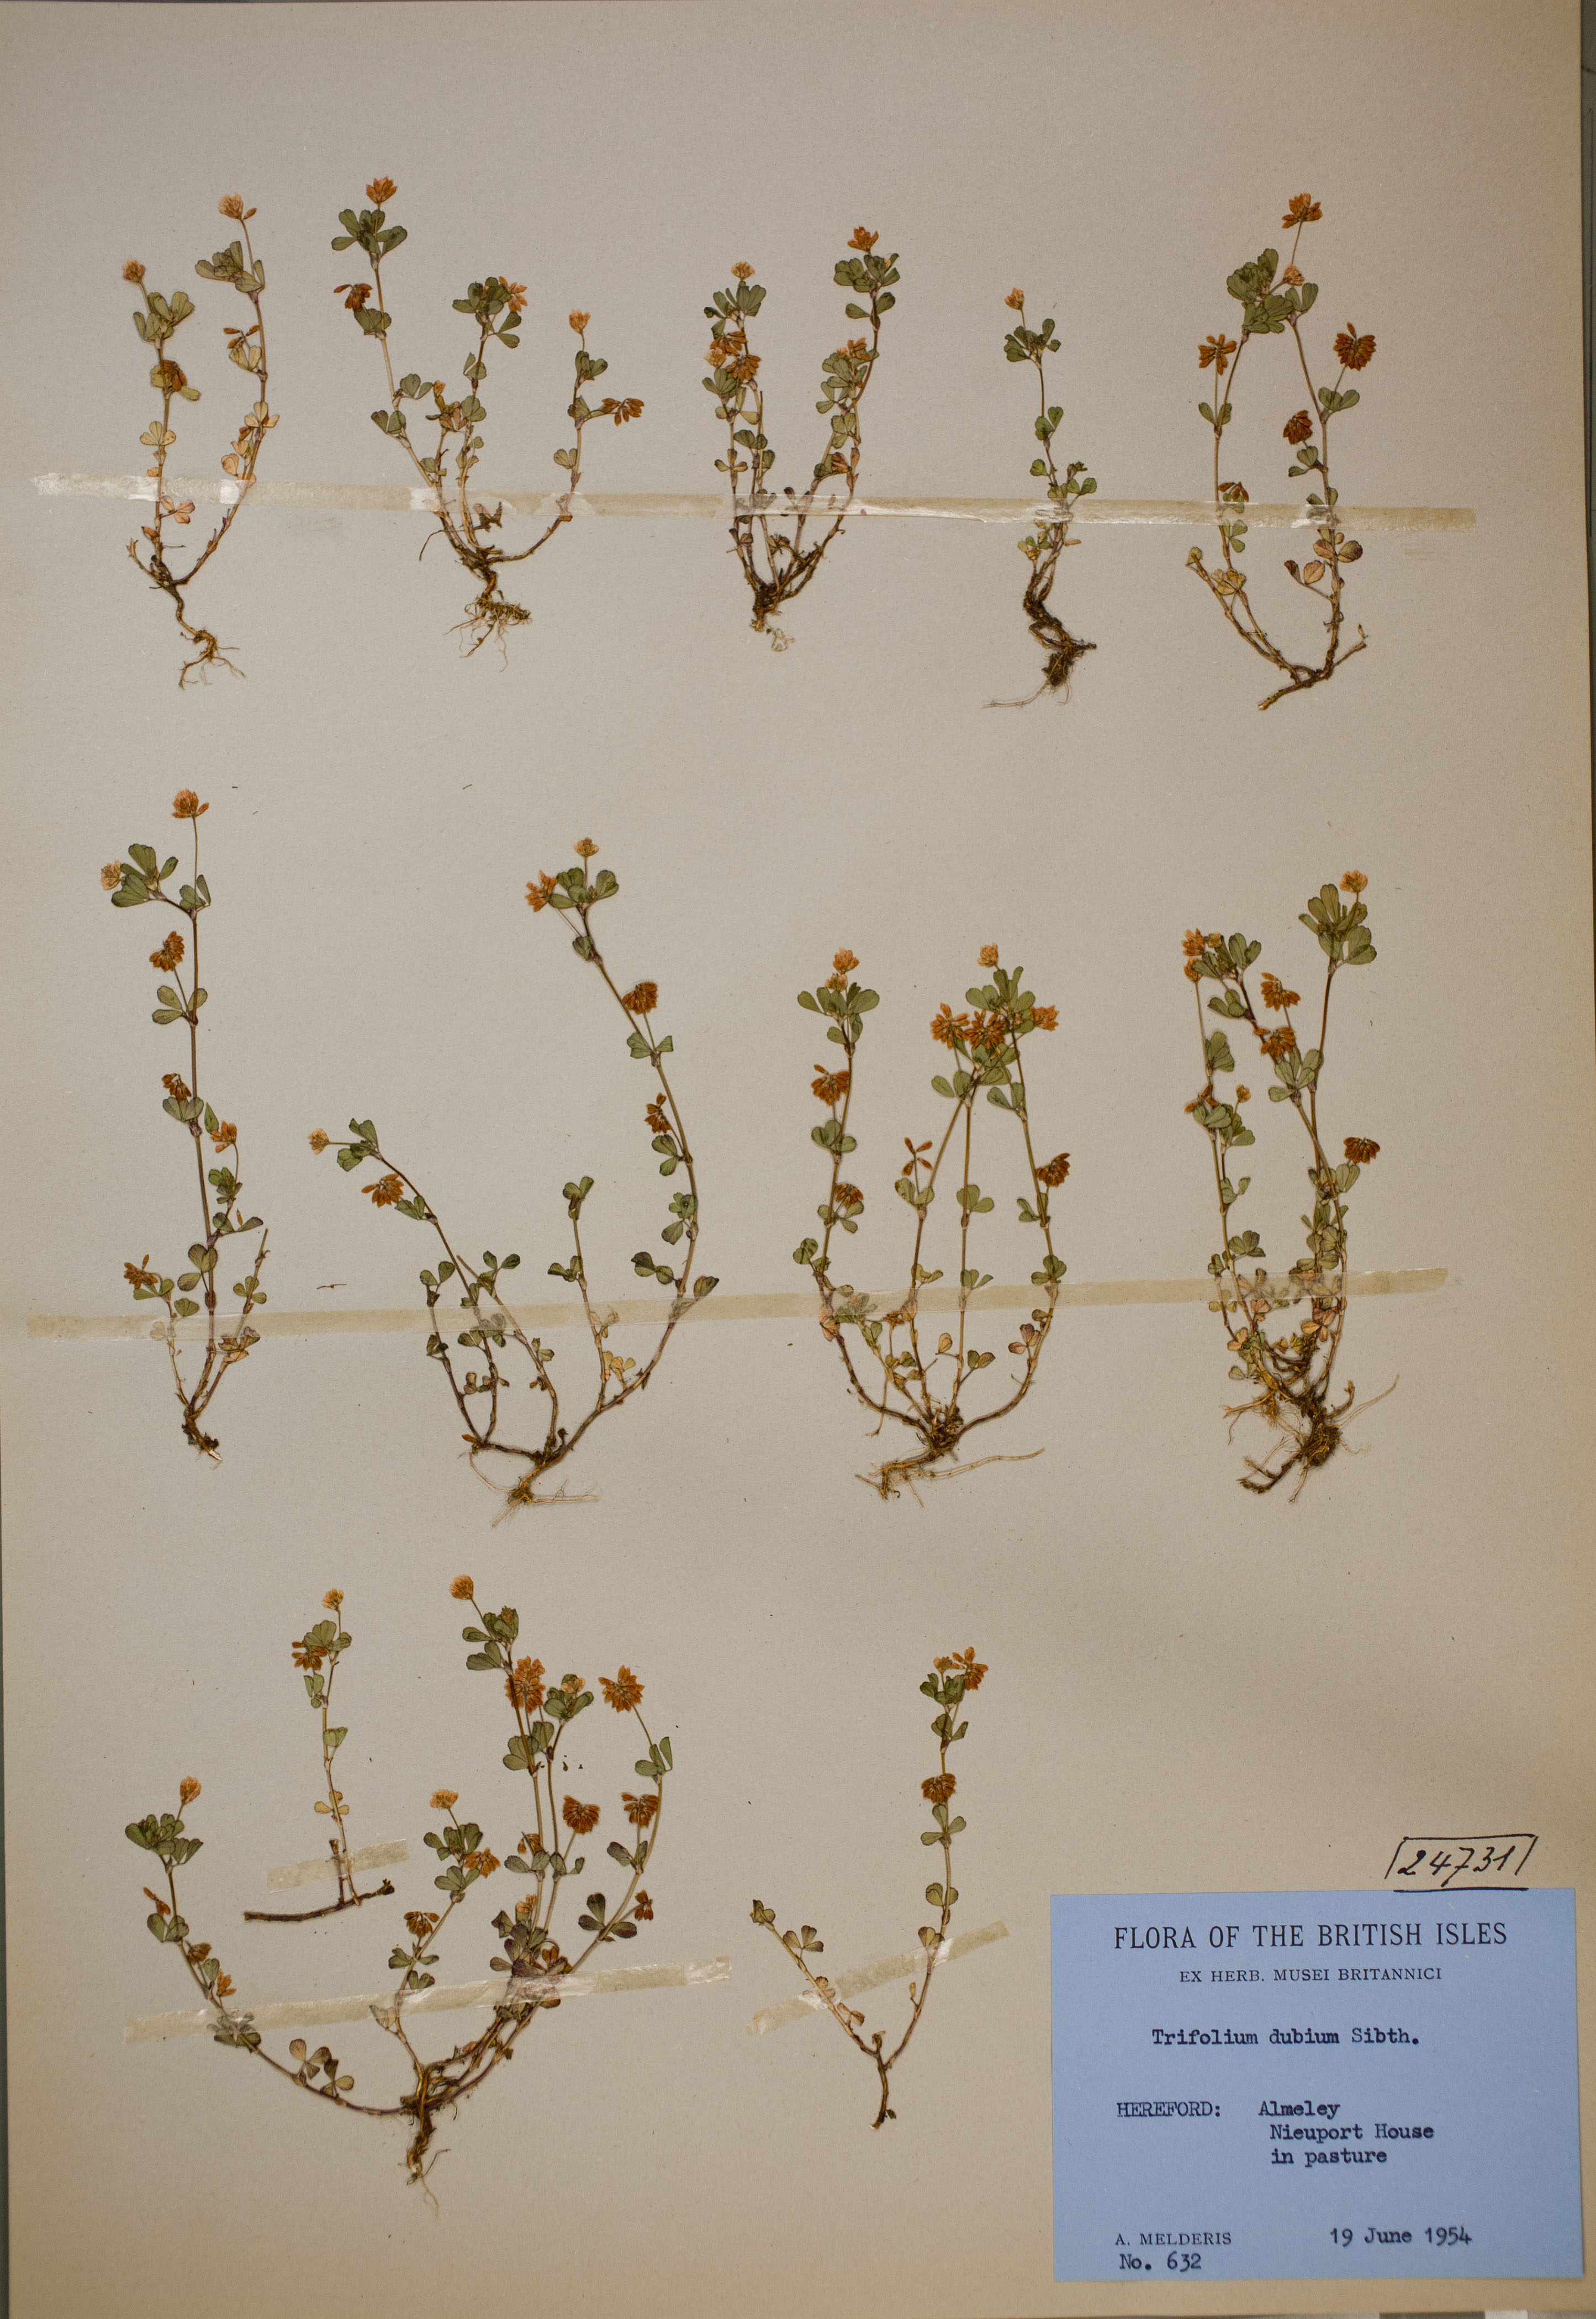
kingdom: Plantae
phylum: Tracheophyta
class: Magnoliopsida
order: Fabales
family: Fabaceae
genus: Trifolium
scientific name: Trifolium dubium
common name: Suckling clover
